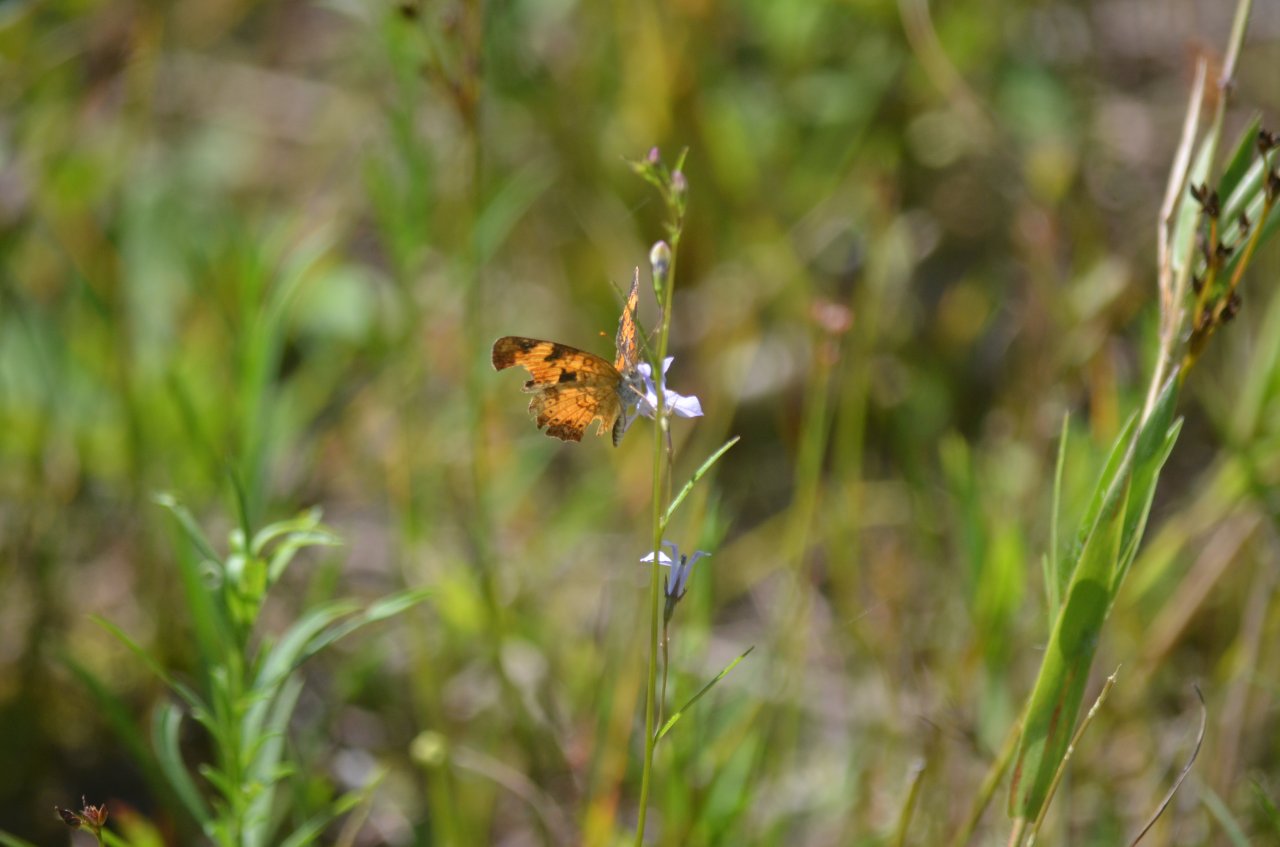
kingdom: Animalia
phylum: Arthropoda
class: Insecta
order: Lepidoptera
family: Nymphalidae
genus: Phyciodes
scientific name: Phyciodes tharos
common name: Northern Crescent
